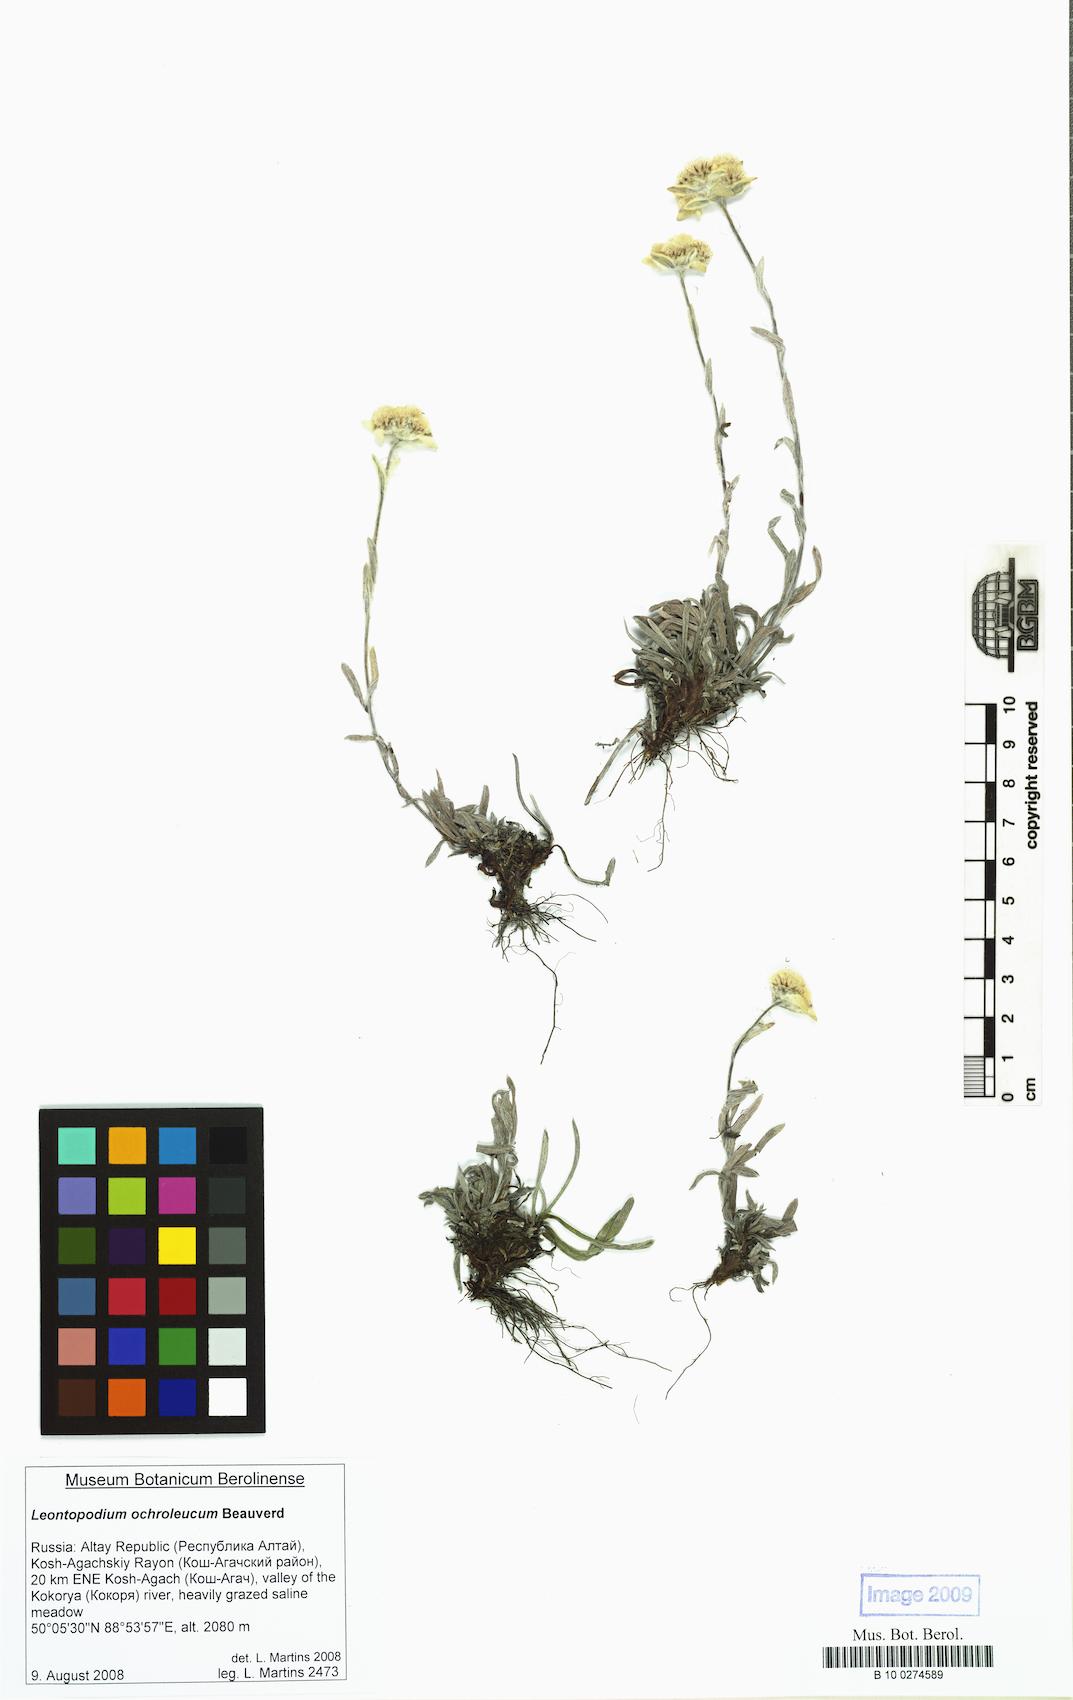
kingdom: Plantae
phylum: Tracheophyta
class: Magnoliopsida
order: Asterales
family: Asteraceae
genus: Leontopodium
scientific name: Leontopodium leontopodinum
